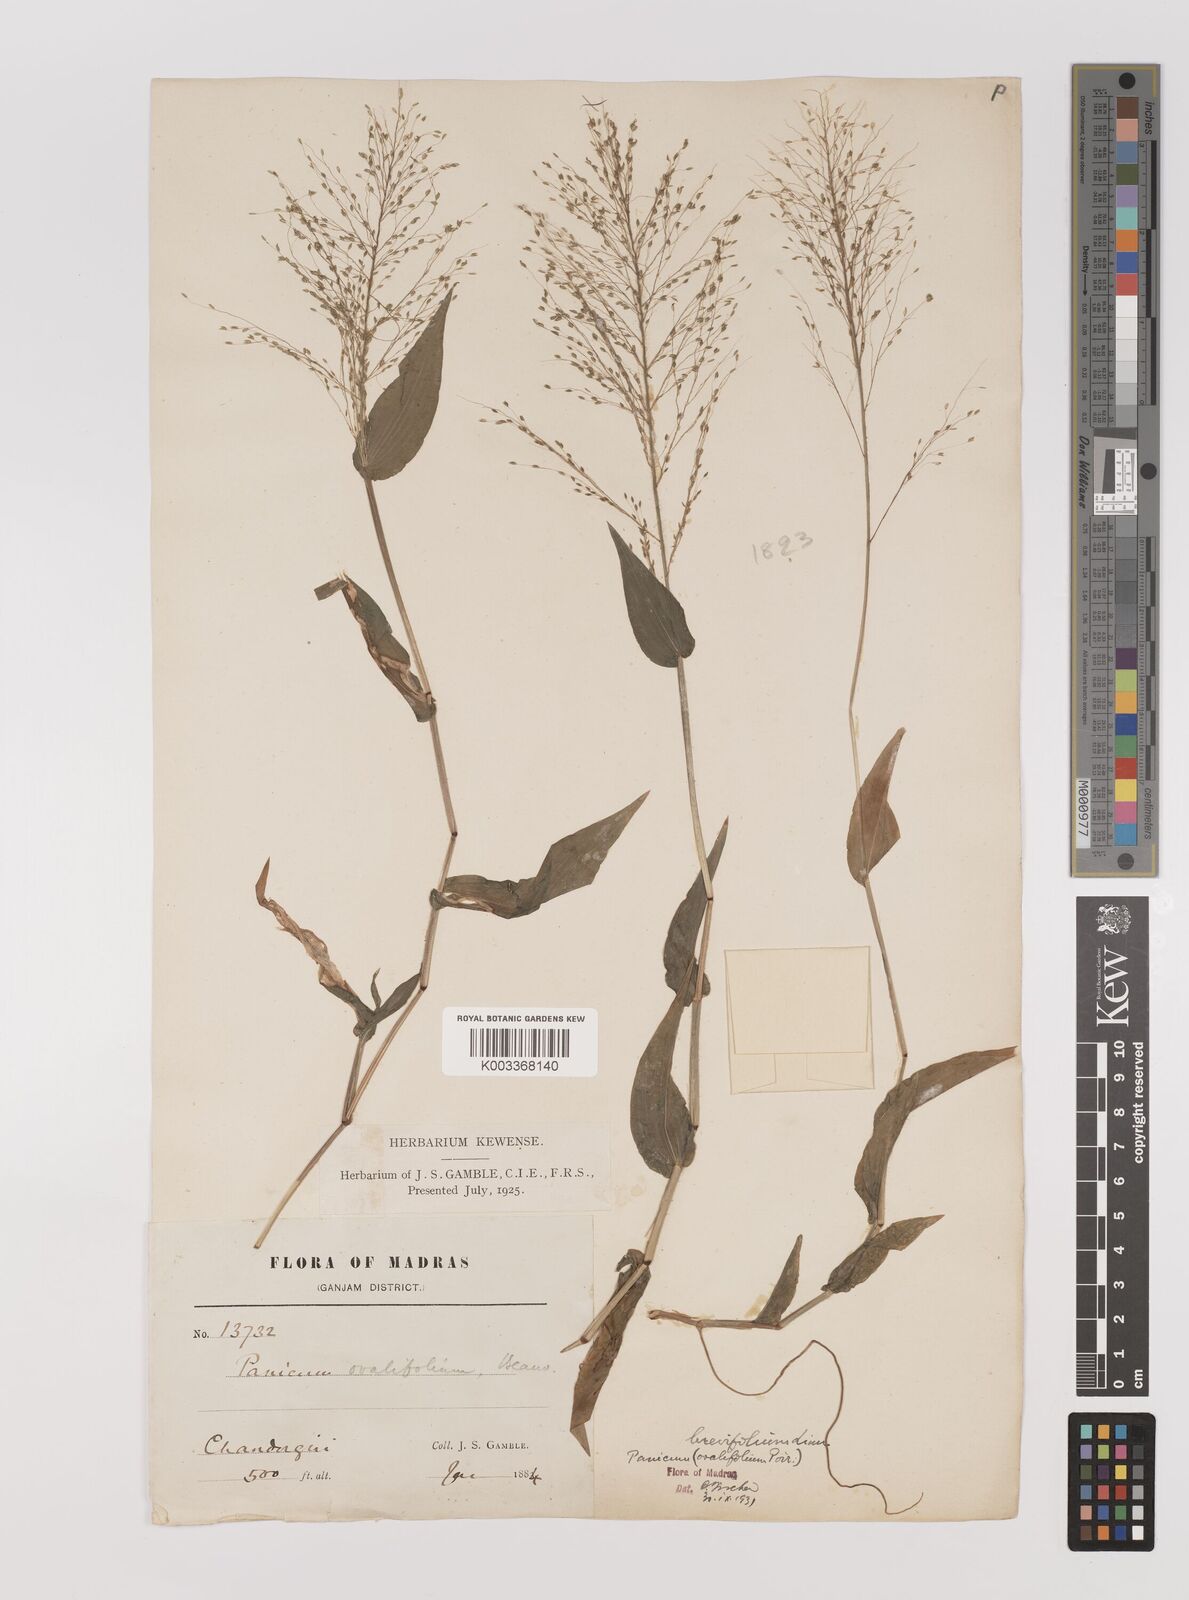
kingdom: Plantae
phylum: Tracheophyta
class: Liliopsida
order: Poales
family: Poaceae
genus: Panicum
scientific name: Panicum brevifolium
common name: Shortleaf panic grass
